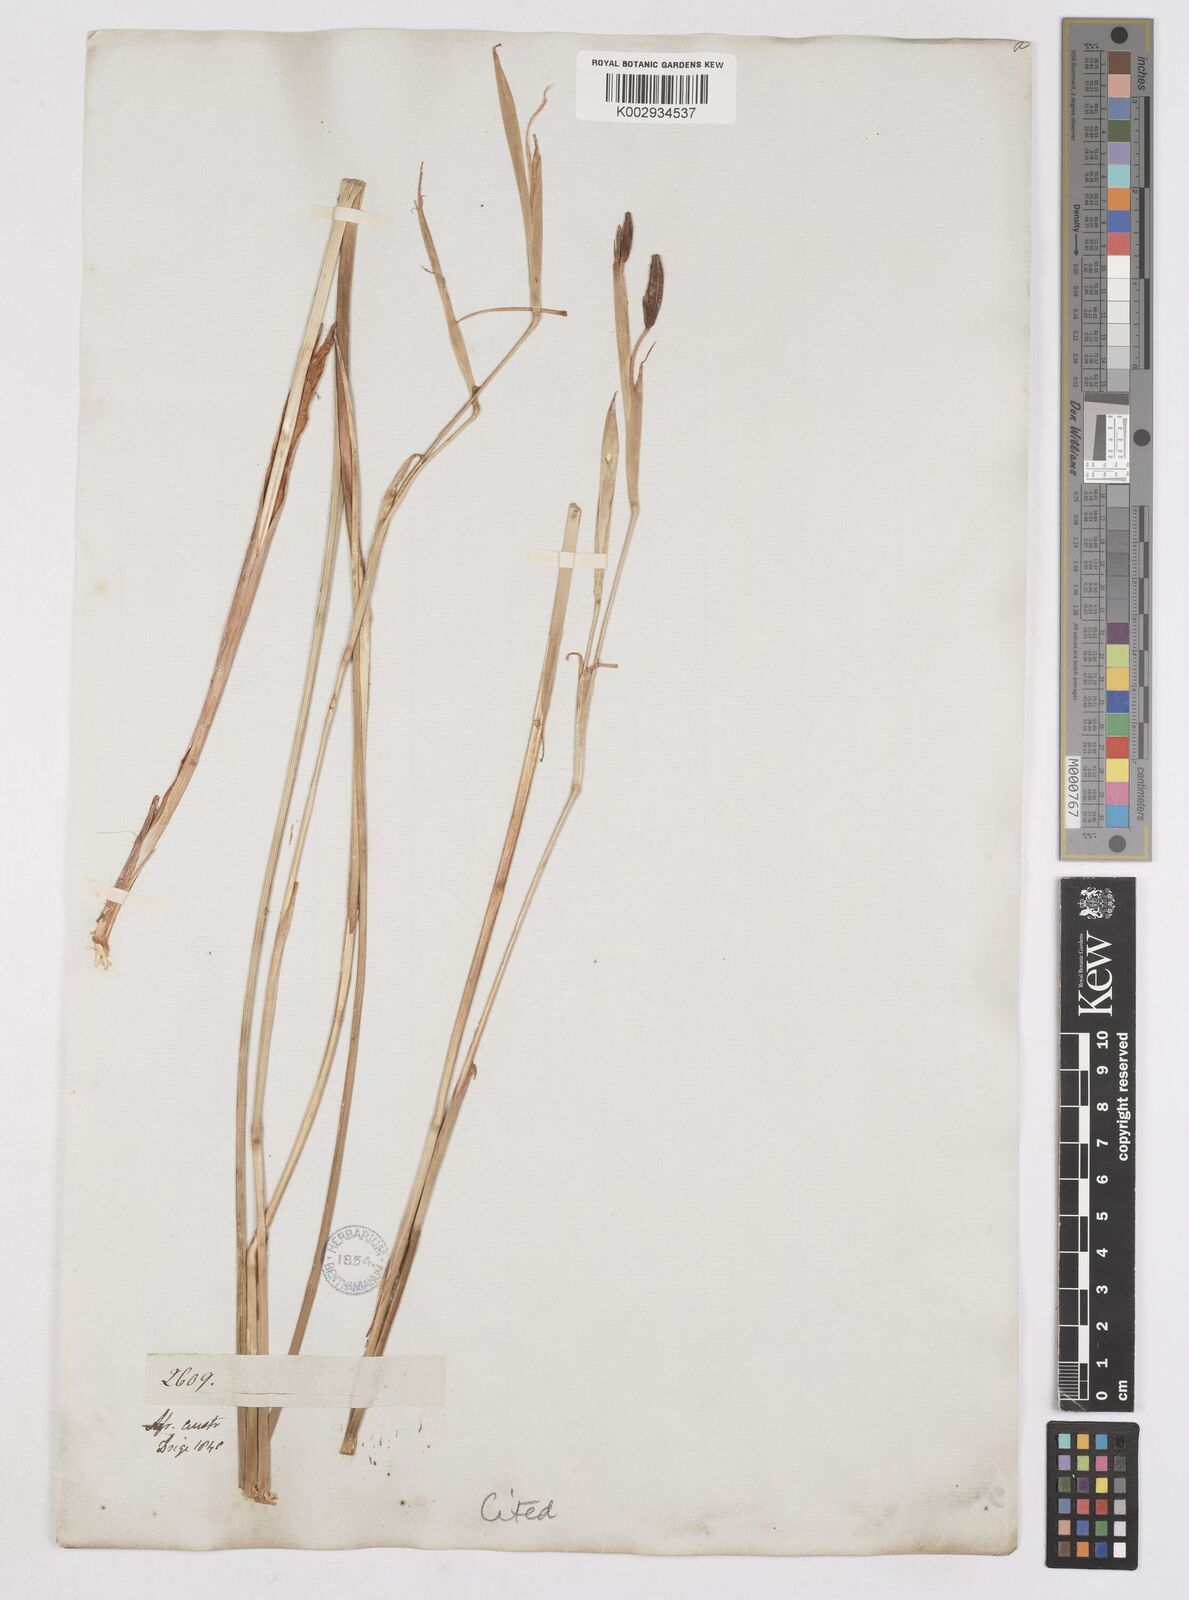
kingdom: Plantae
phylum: Tracheophyta
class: Liliopsida
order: Asparagales
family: Iridaceae
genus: Moraea
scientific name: Moraea unguiculata
